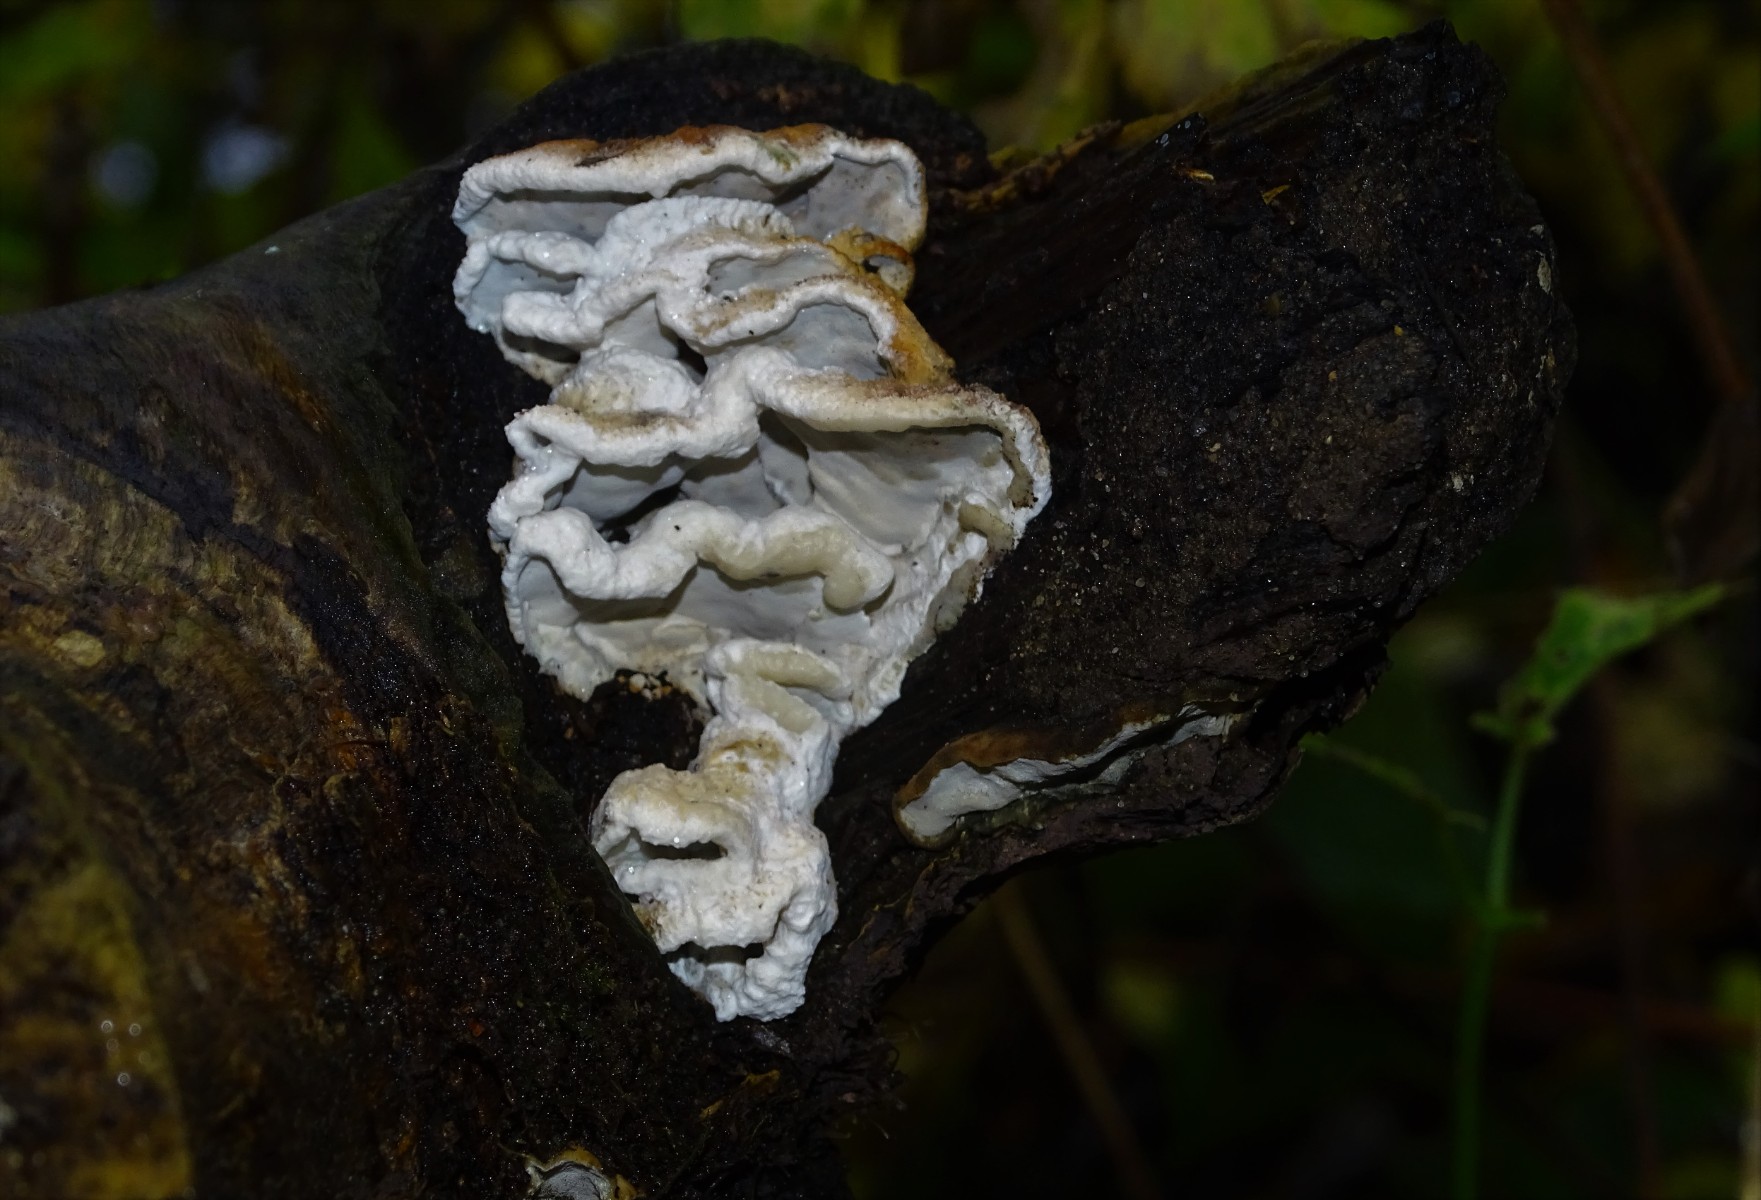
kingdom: Fungi
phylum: Basidiomycota
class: Agaricomycetes
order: Polyporales
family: Incrustoporiaceae
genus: Skeletocutis
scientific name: Skeletocutis nemoralis
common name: stor krystalporesvamp
